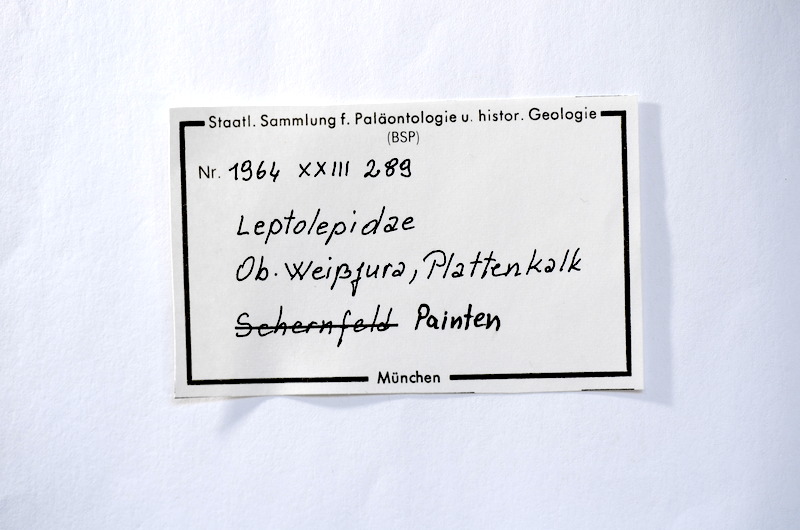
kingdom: Animalia
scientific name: Animalia
